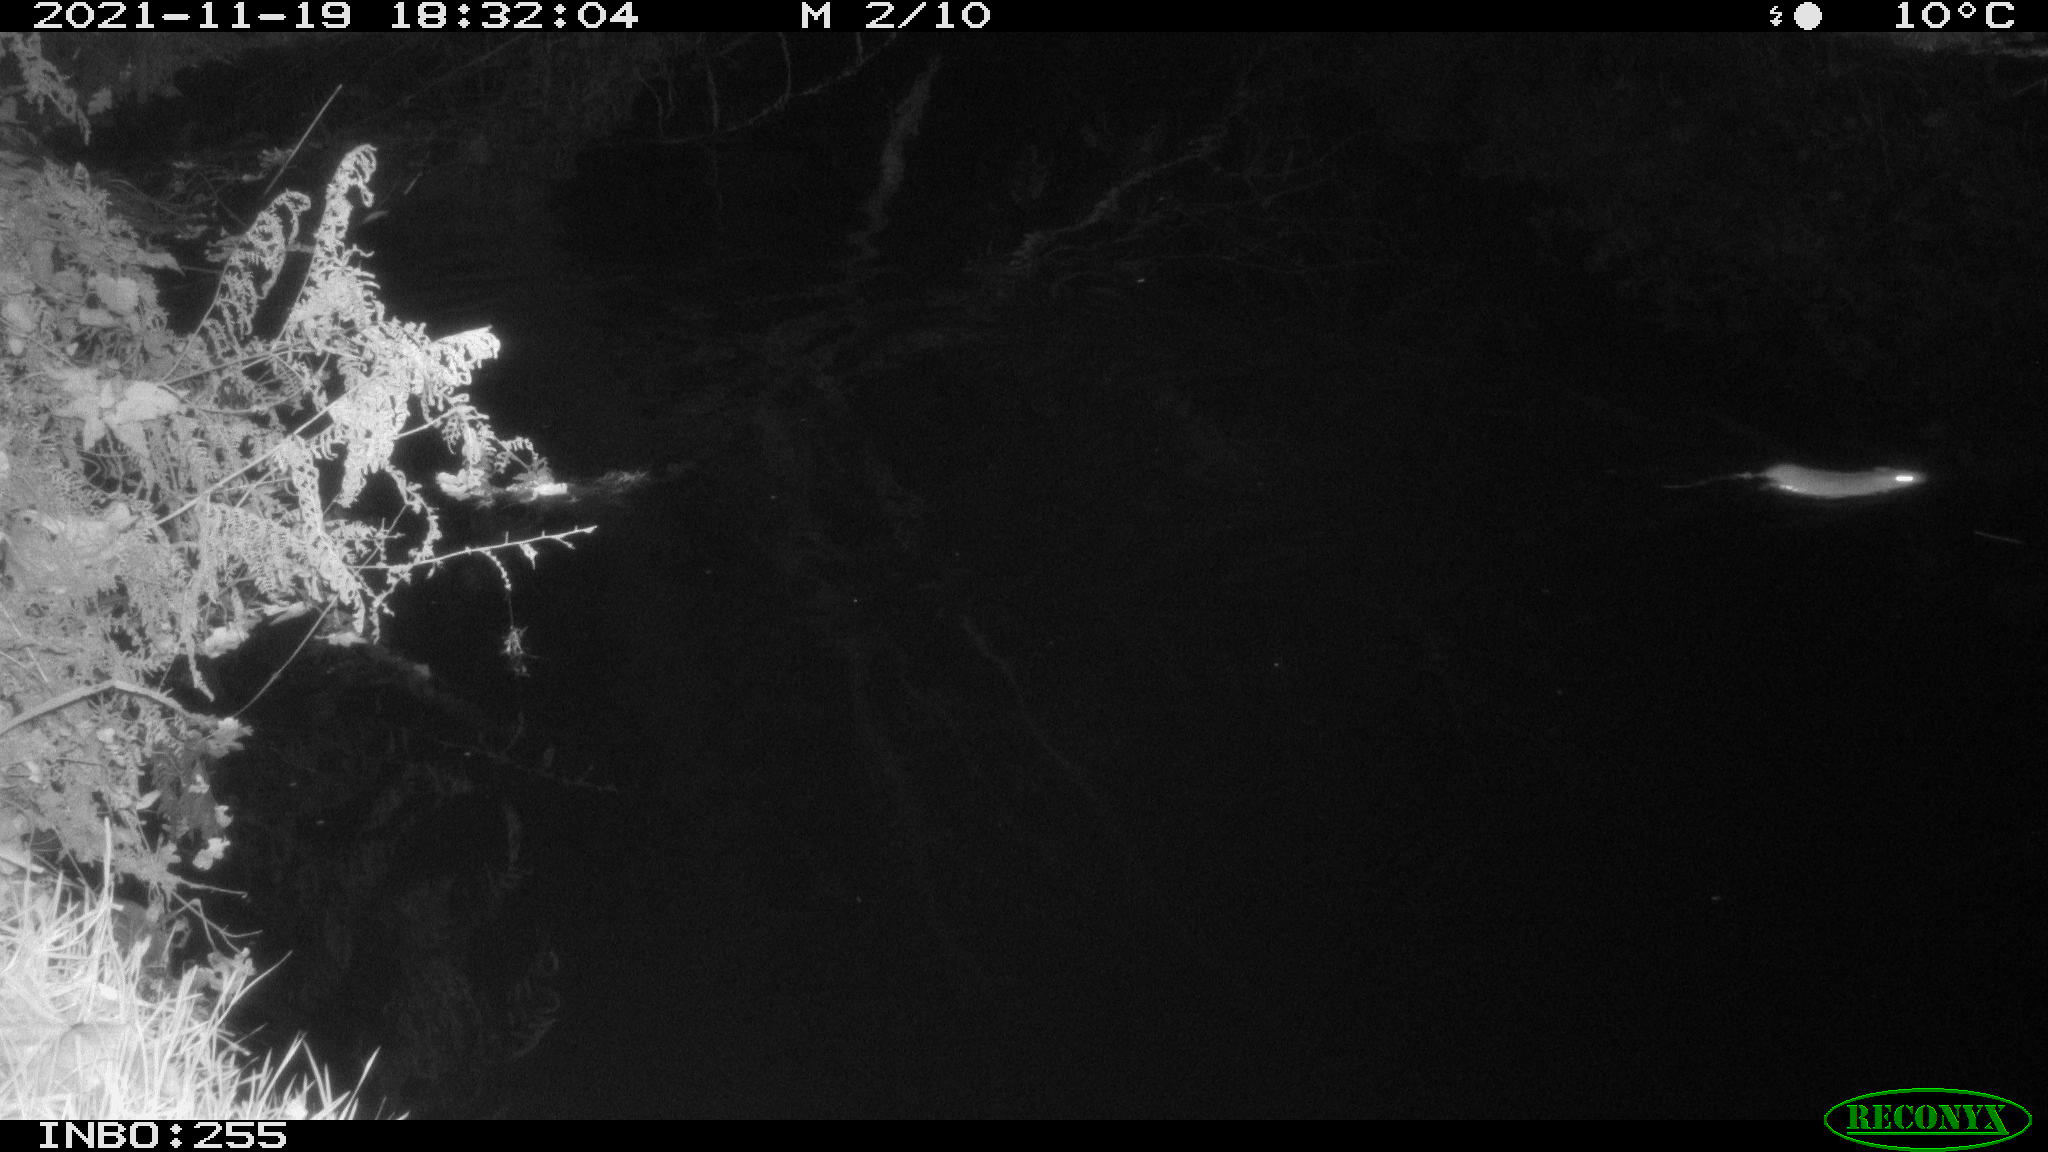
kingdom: Animalia
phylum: Chordata
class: Mammalia
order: Rodentia
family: Muridae
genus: Rattus
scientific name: Rattus norvegicus
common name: Brown rat
